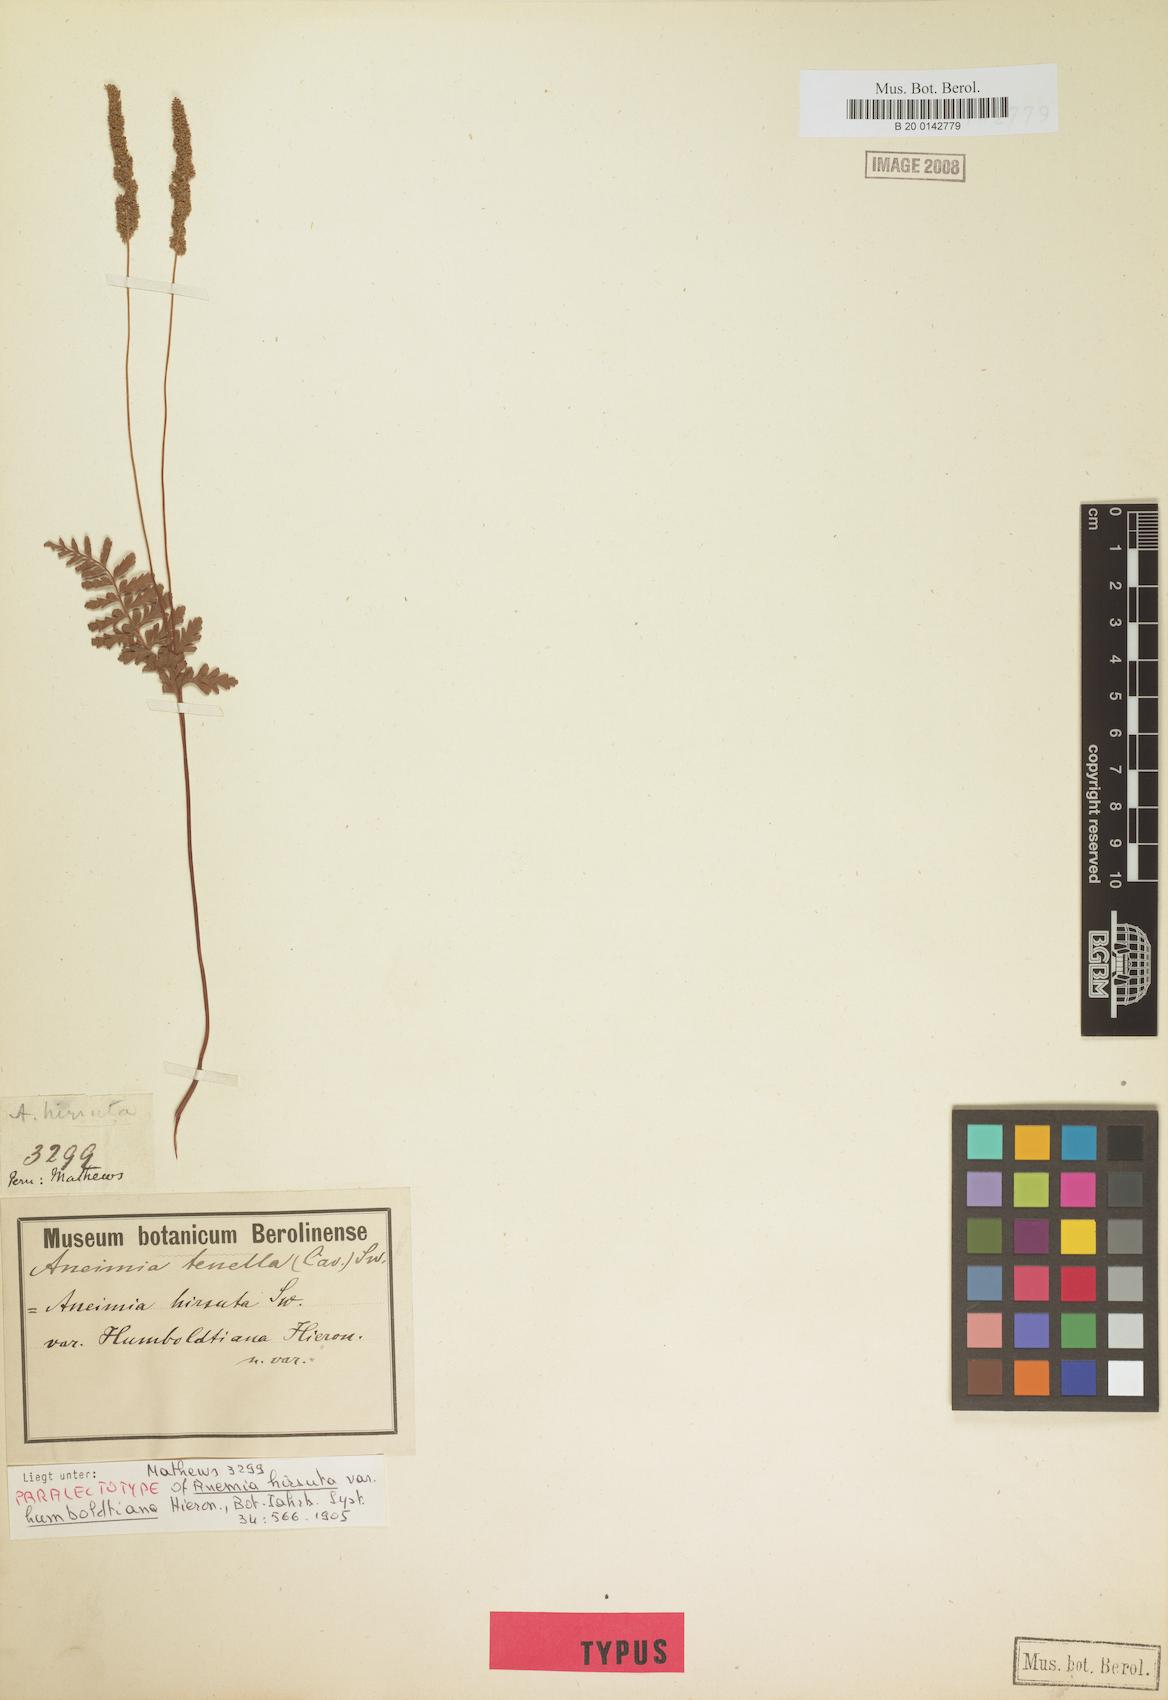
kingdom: Plantae
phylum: Tracheophyta
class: Polypodiopsida
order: Schizaeales
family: Anemiaceae
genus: Anemia
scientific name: Anemia hirsuta
